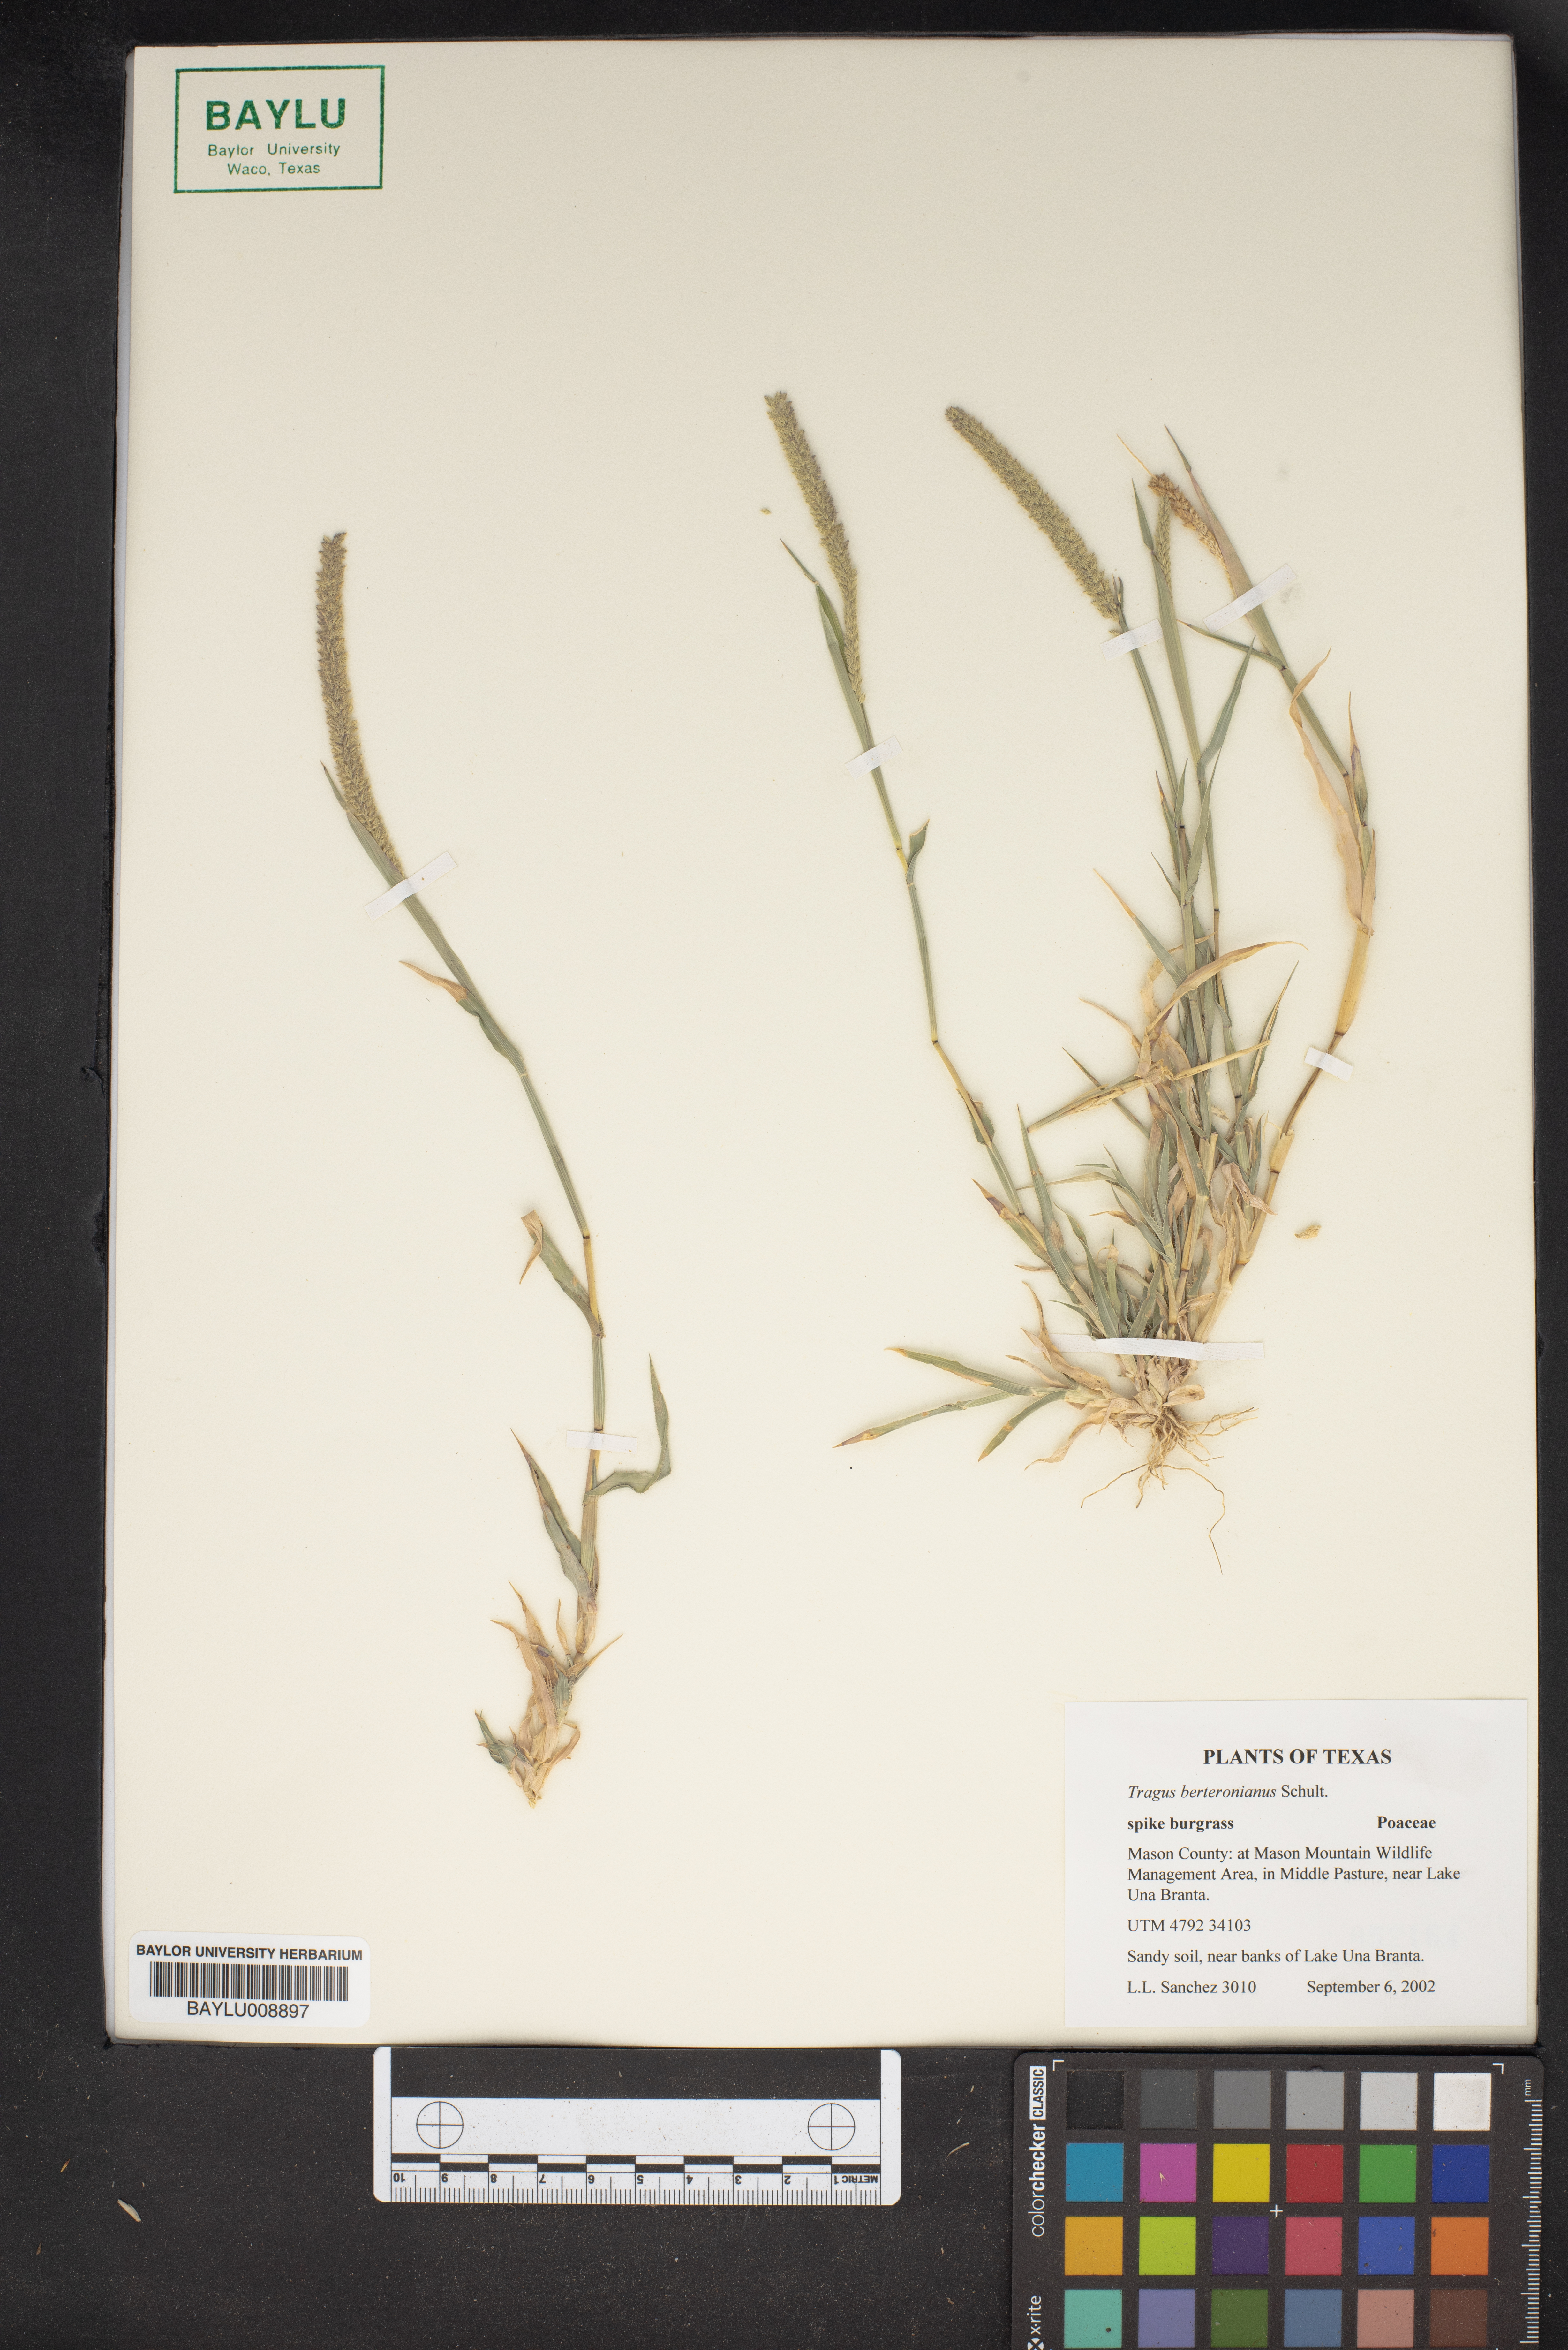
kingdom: Plantae
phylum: Tracheophyta
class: Liliopsida
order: Poales
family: Poaceae
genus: Tragus
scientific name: Tragus berteronianus
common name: African bur-grass
